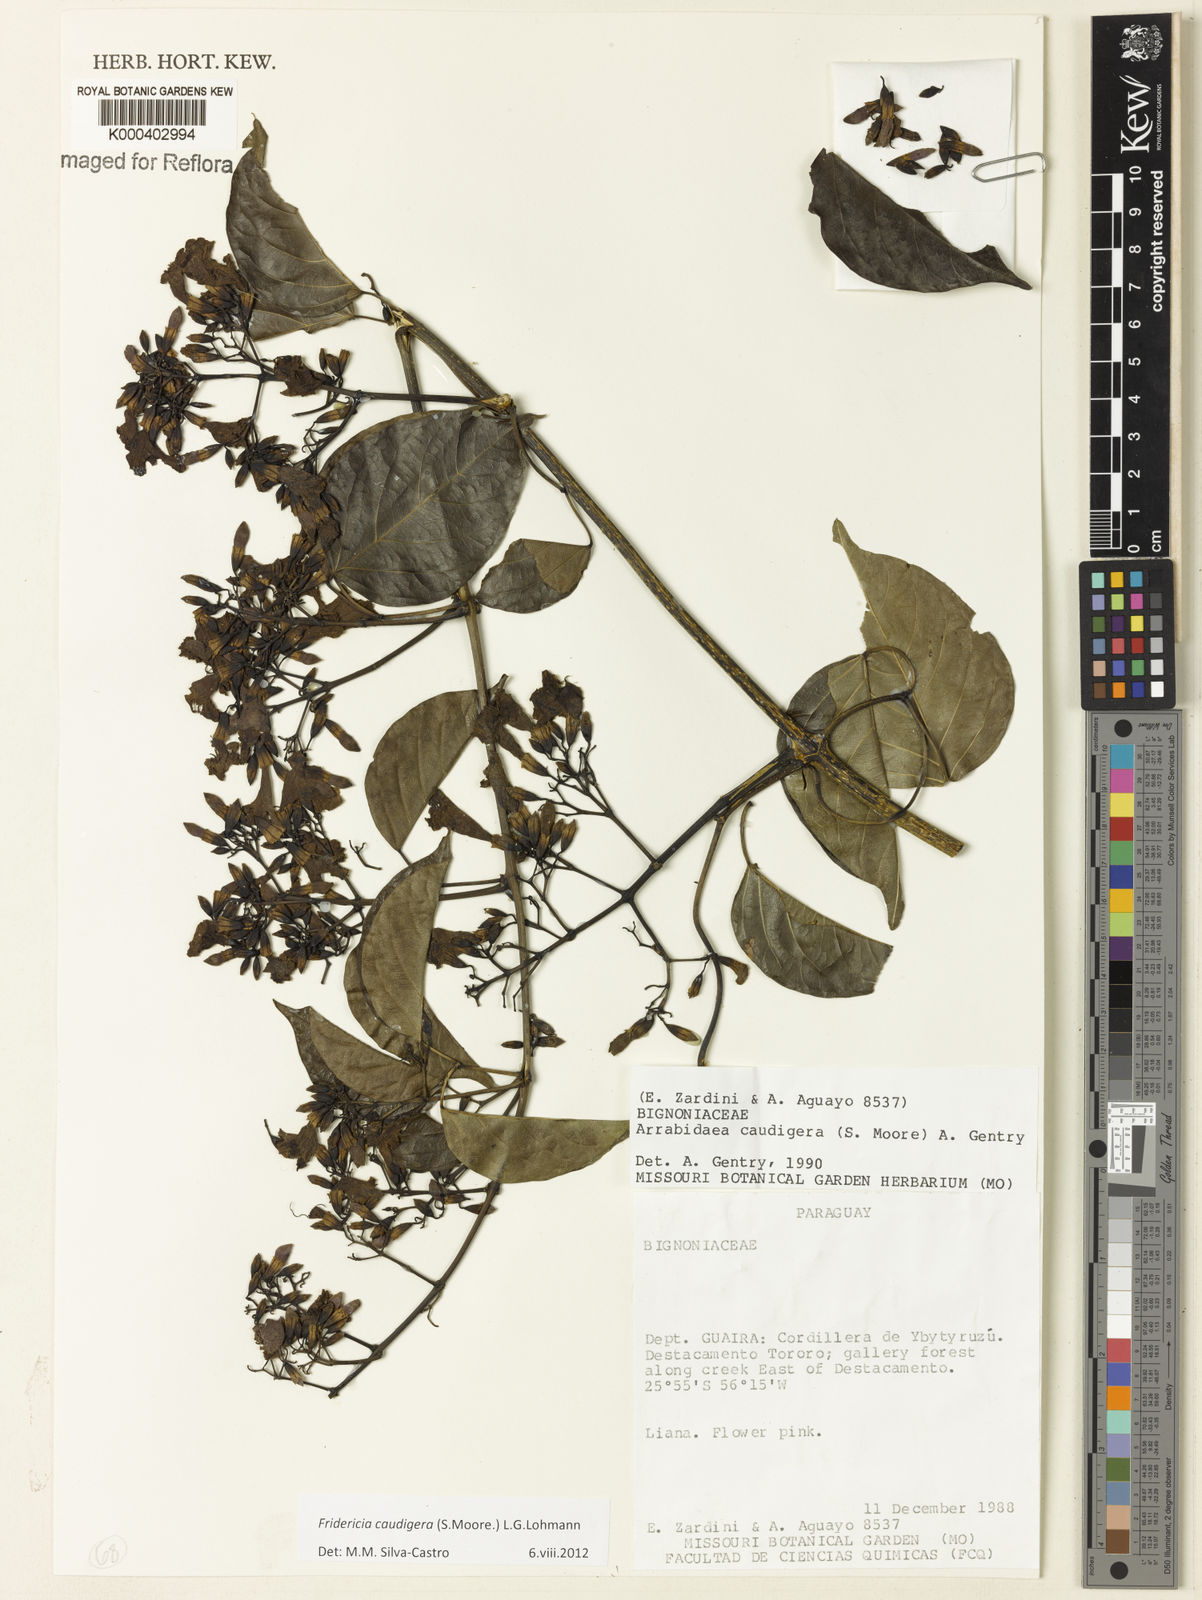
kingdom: Plantae
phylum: Tracheophyta
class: Magnoliopsida
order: Lamiales
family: Bignoniaceae
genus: Fridericia
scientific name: Fridericia caudigera
